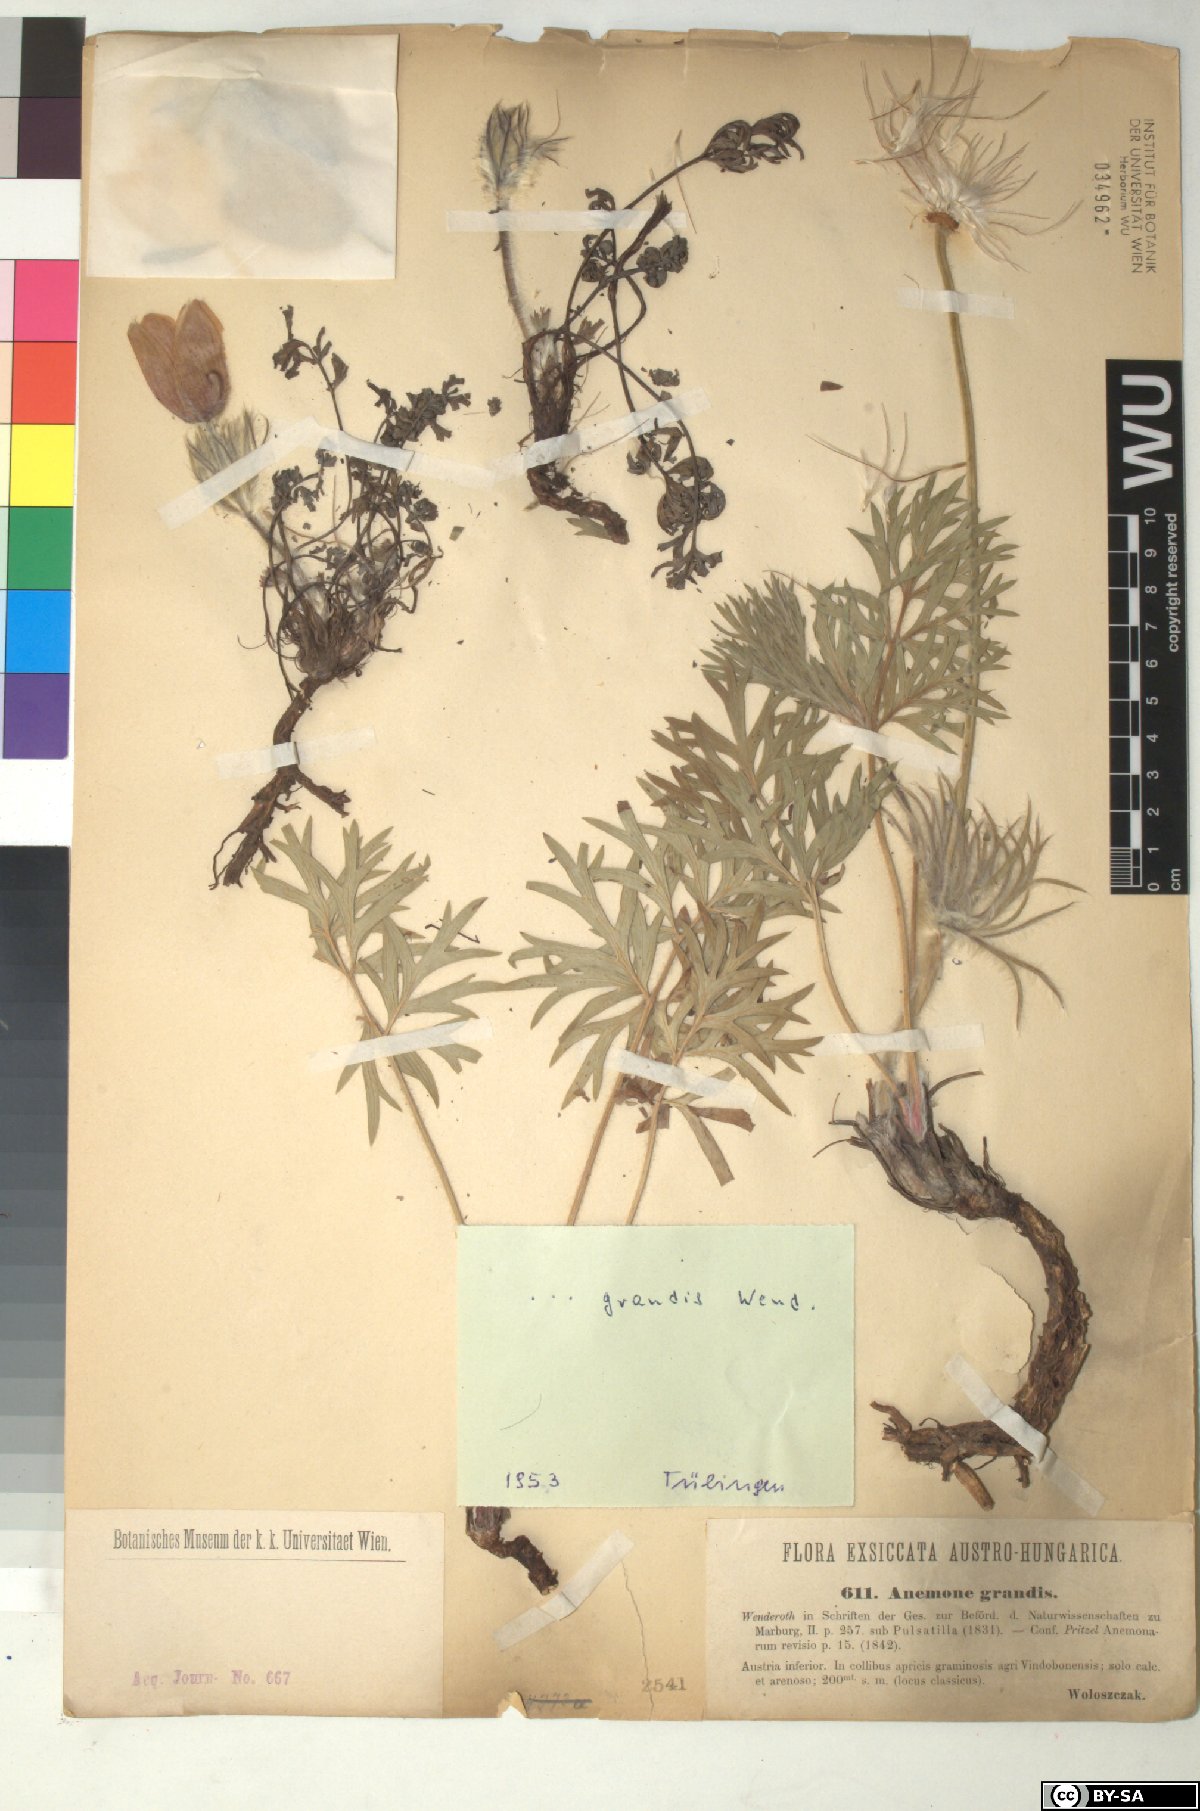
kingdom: Plantae
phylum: Tracheophyta
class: Magnoliopsida
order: Ranunculales
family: Ranunculaceae
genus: Pulsatilla
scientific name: Pulsatilla grandis
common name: Greater pasque flower
